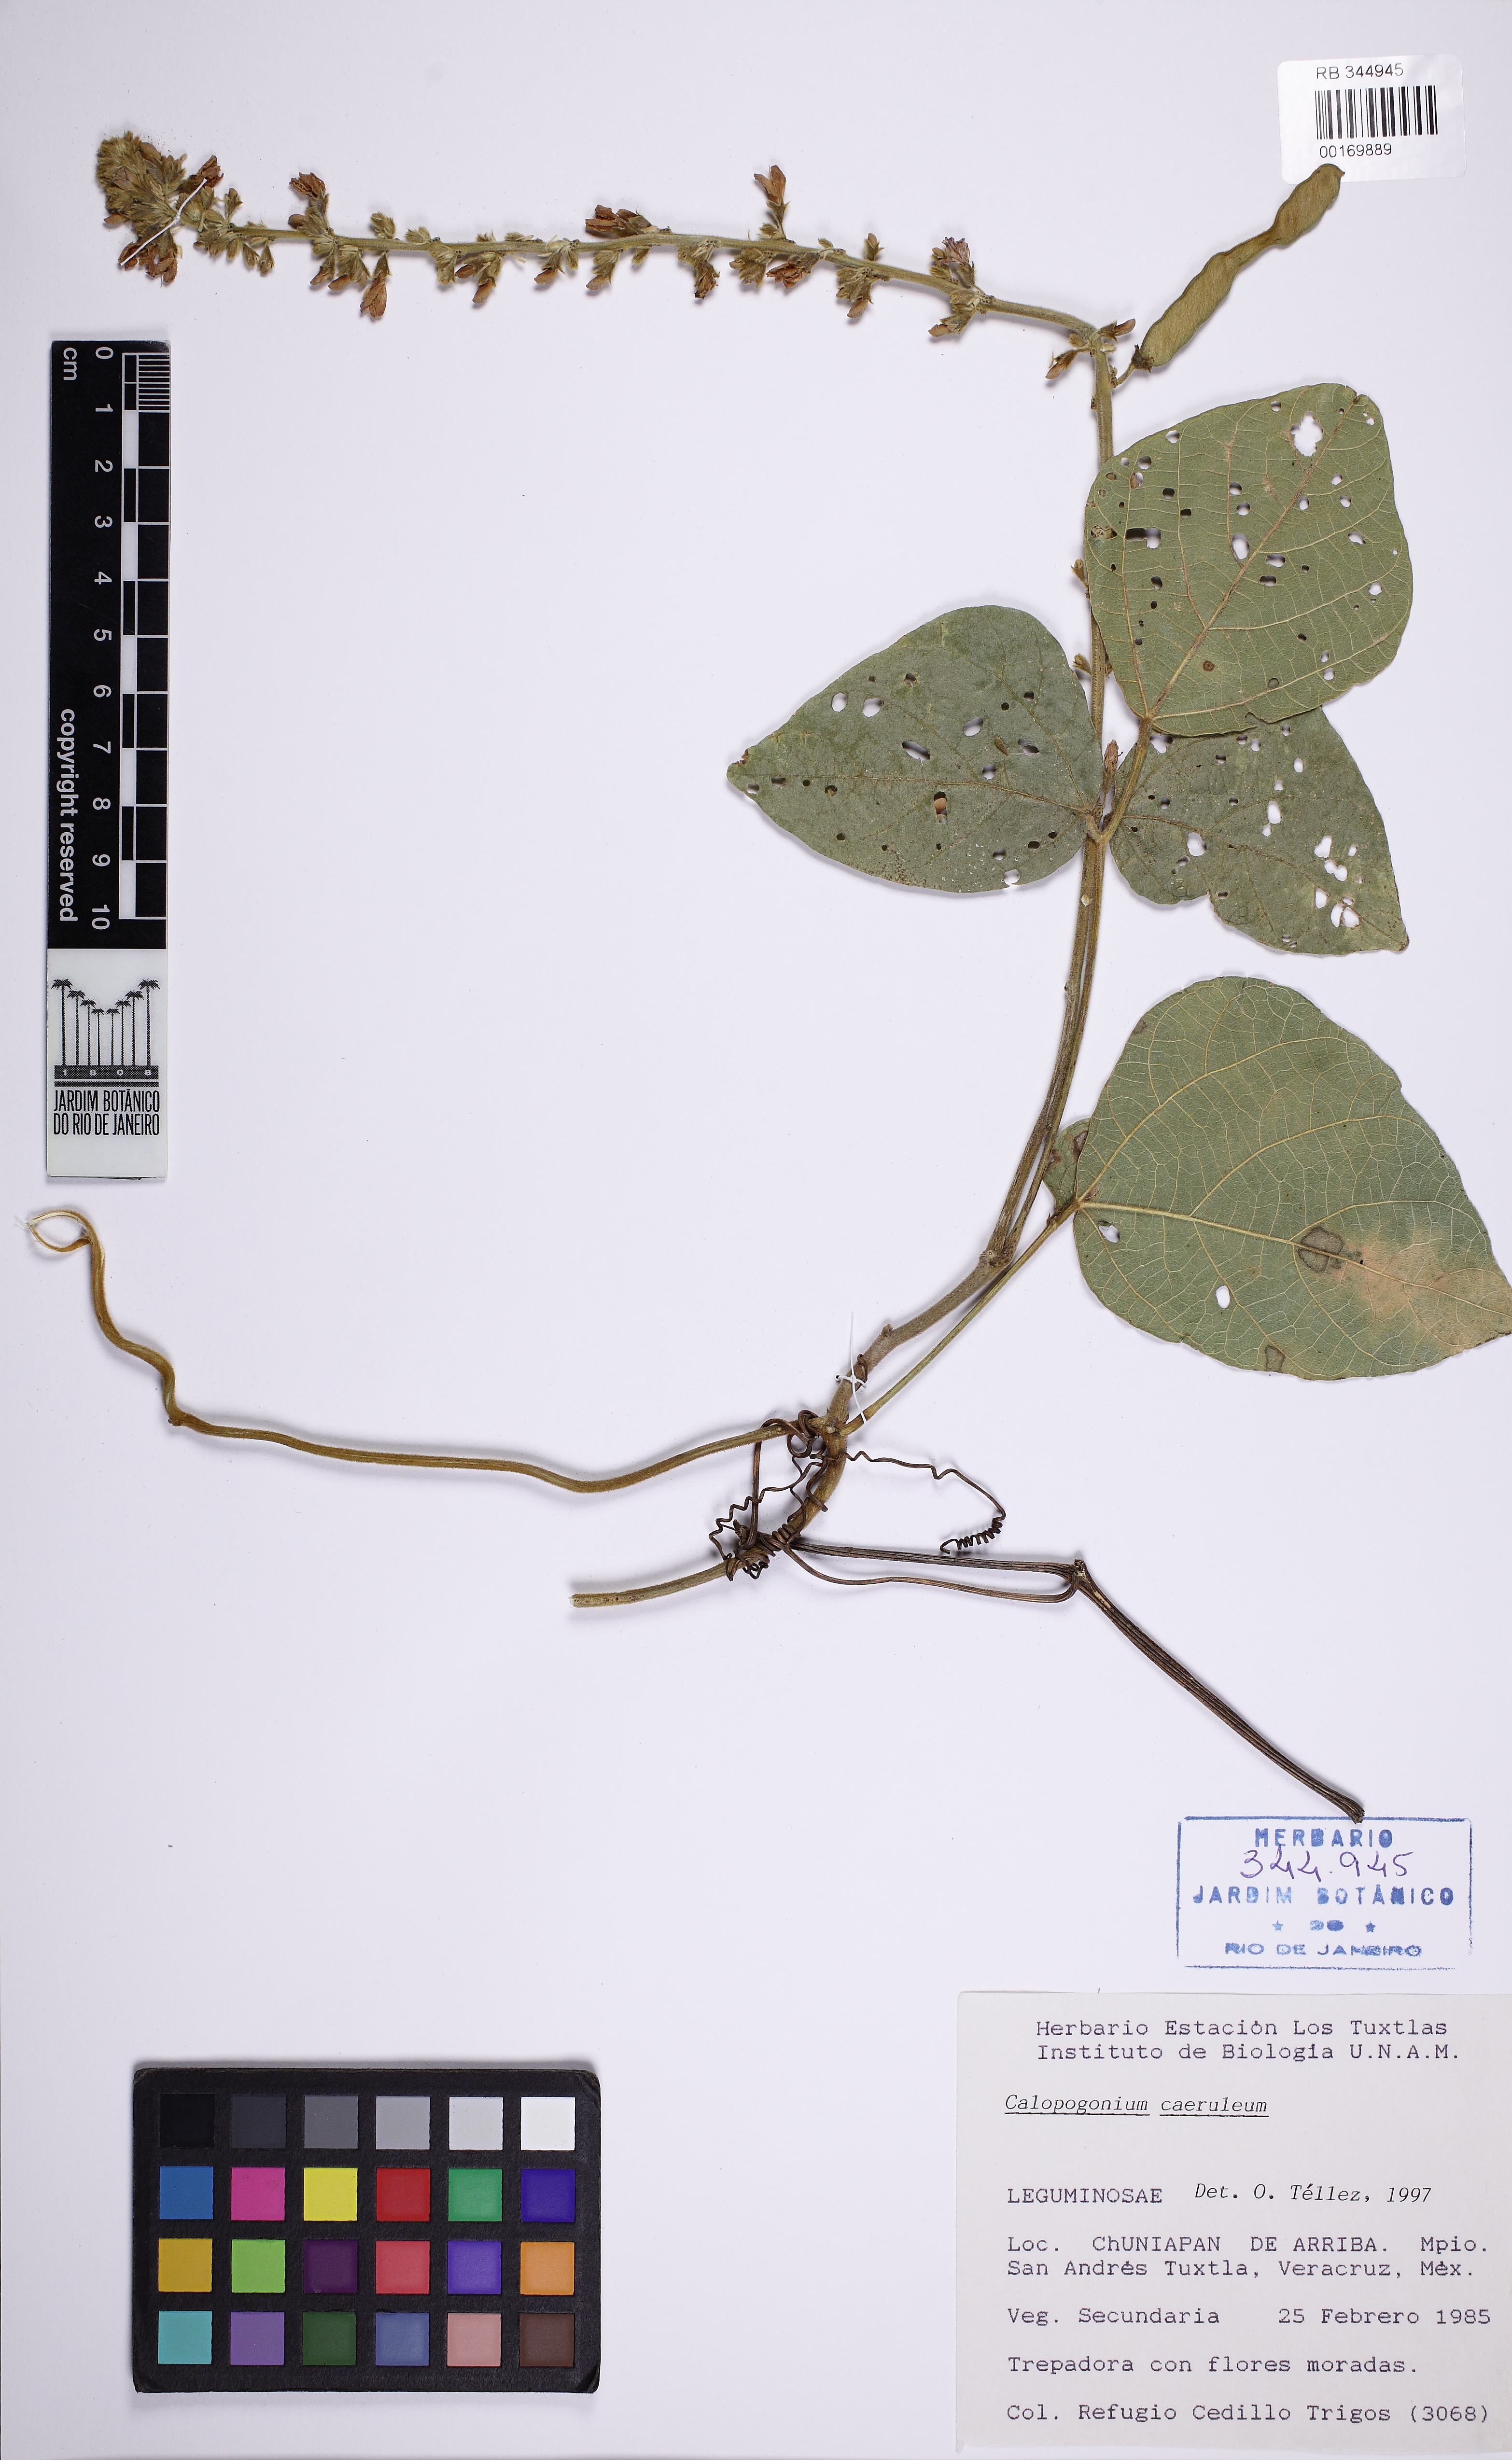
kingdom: Plantae
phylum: Tracheophyta
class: Magnoliopsida
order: Fabales
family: Fabaceae
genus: Calopogonium
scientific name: Calopogonium caeruleum
